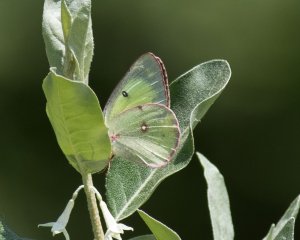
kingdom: Animalia
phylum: Arthropoda
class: Insecta
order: Lepidoptera
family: Pieridae
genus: Colias
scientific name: Colias philodice
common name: Clouded Sulphur
